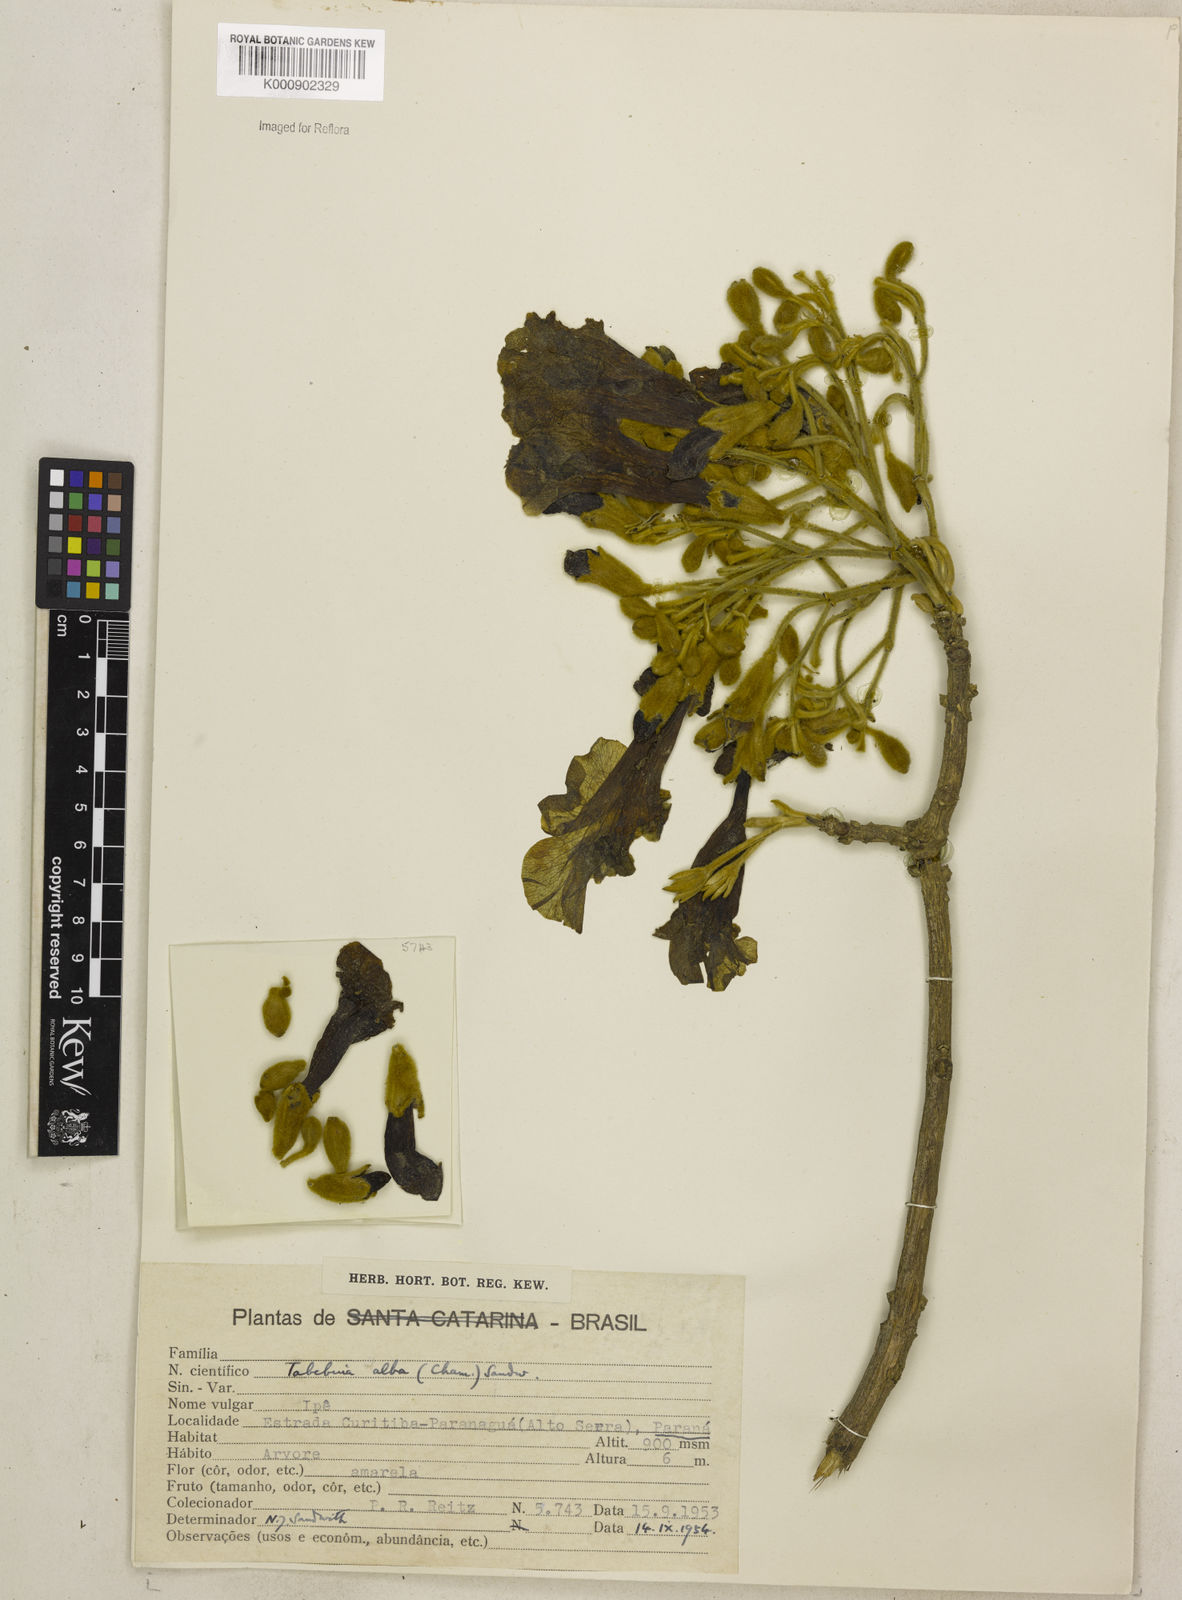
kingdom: Plantae
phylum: Tracheophyta
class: Magnoliopsida
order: Lamiales
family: Bignoniaceae
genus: Handroanthus
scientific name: Handroanthus albus
